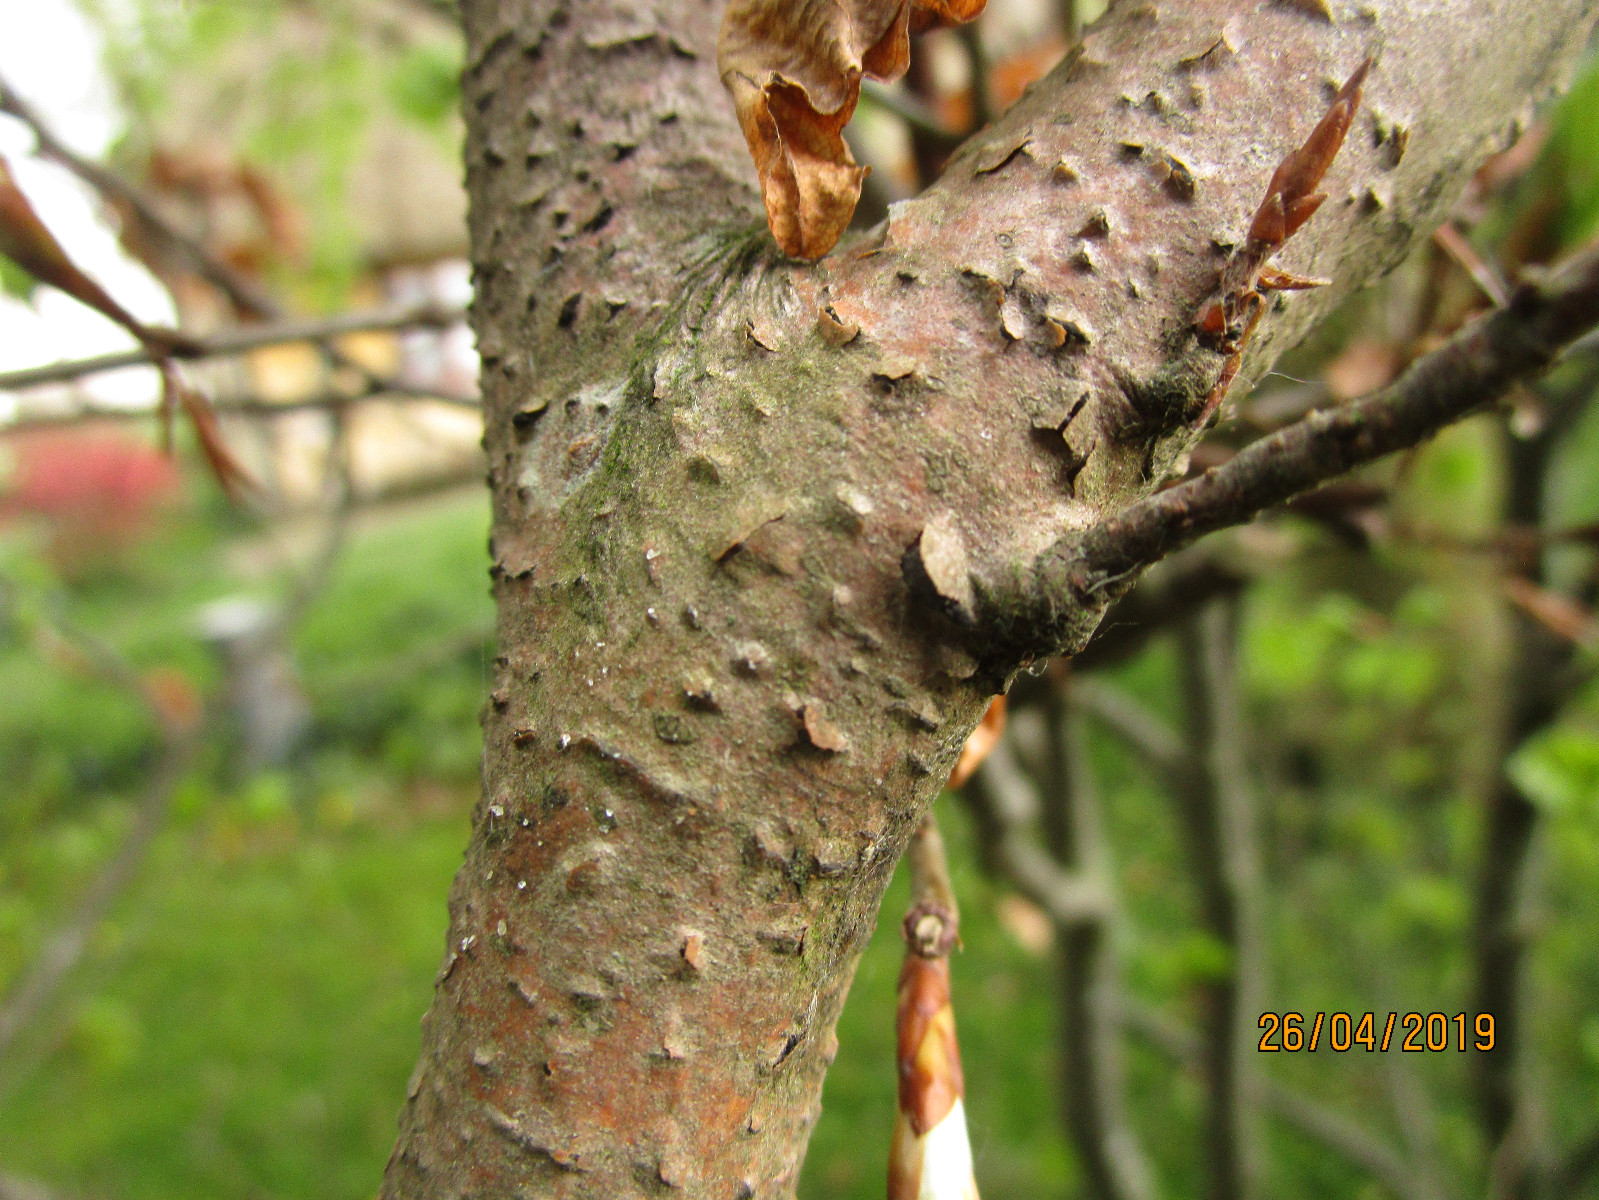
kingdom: Fungi
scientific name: Fungi
